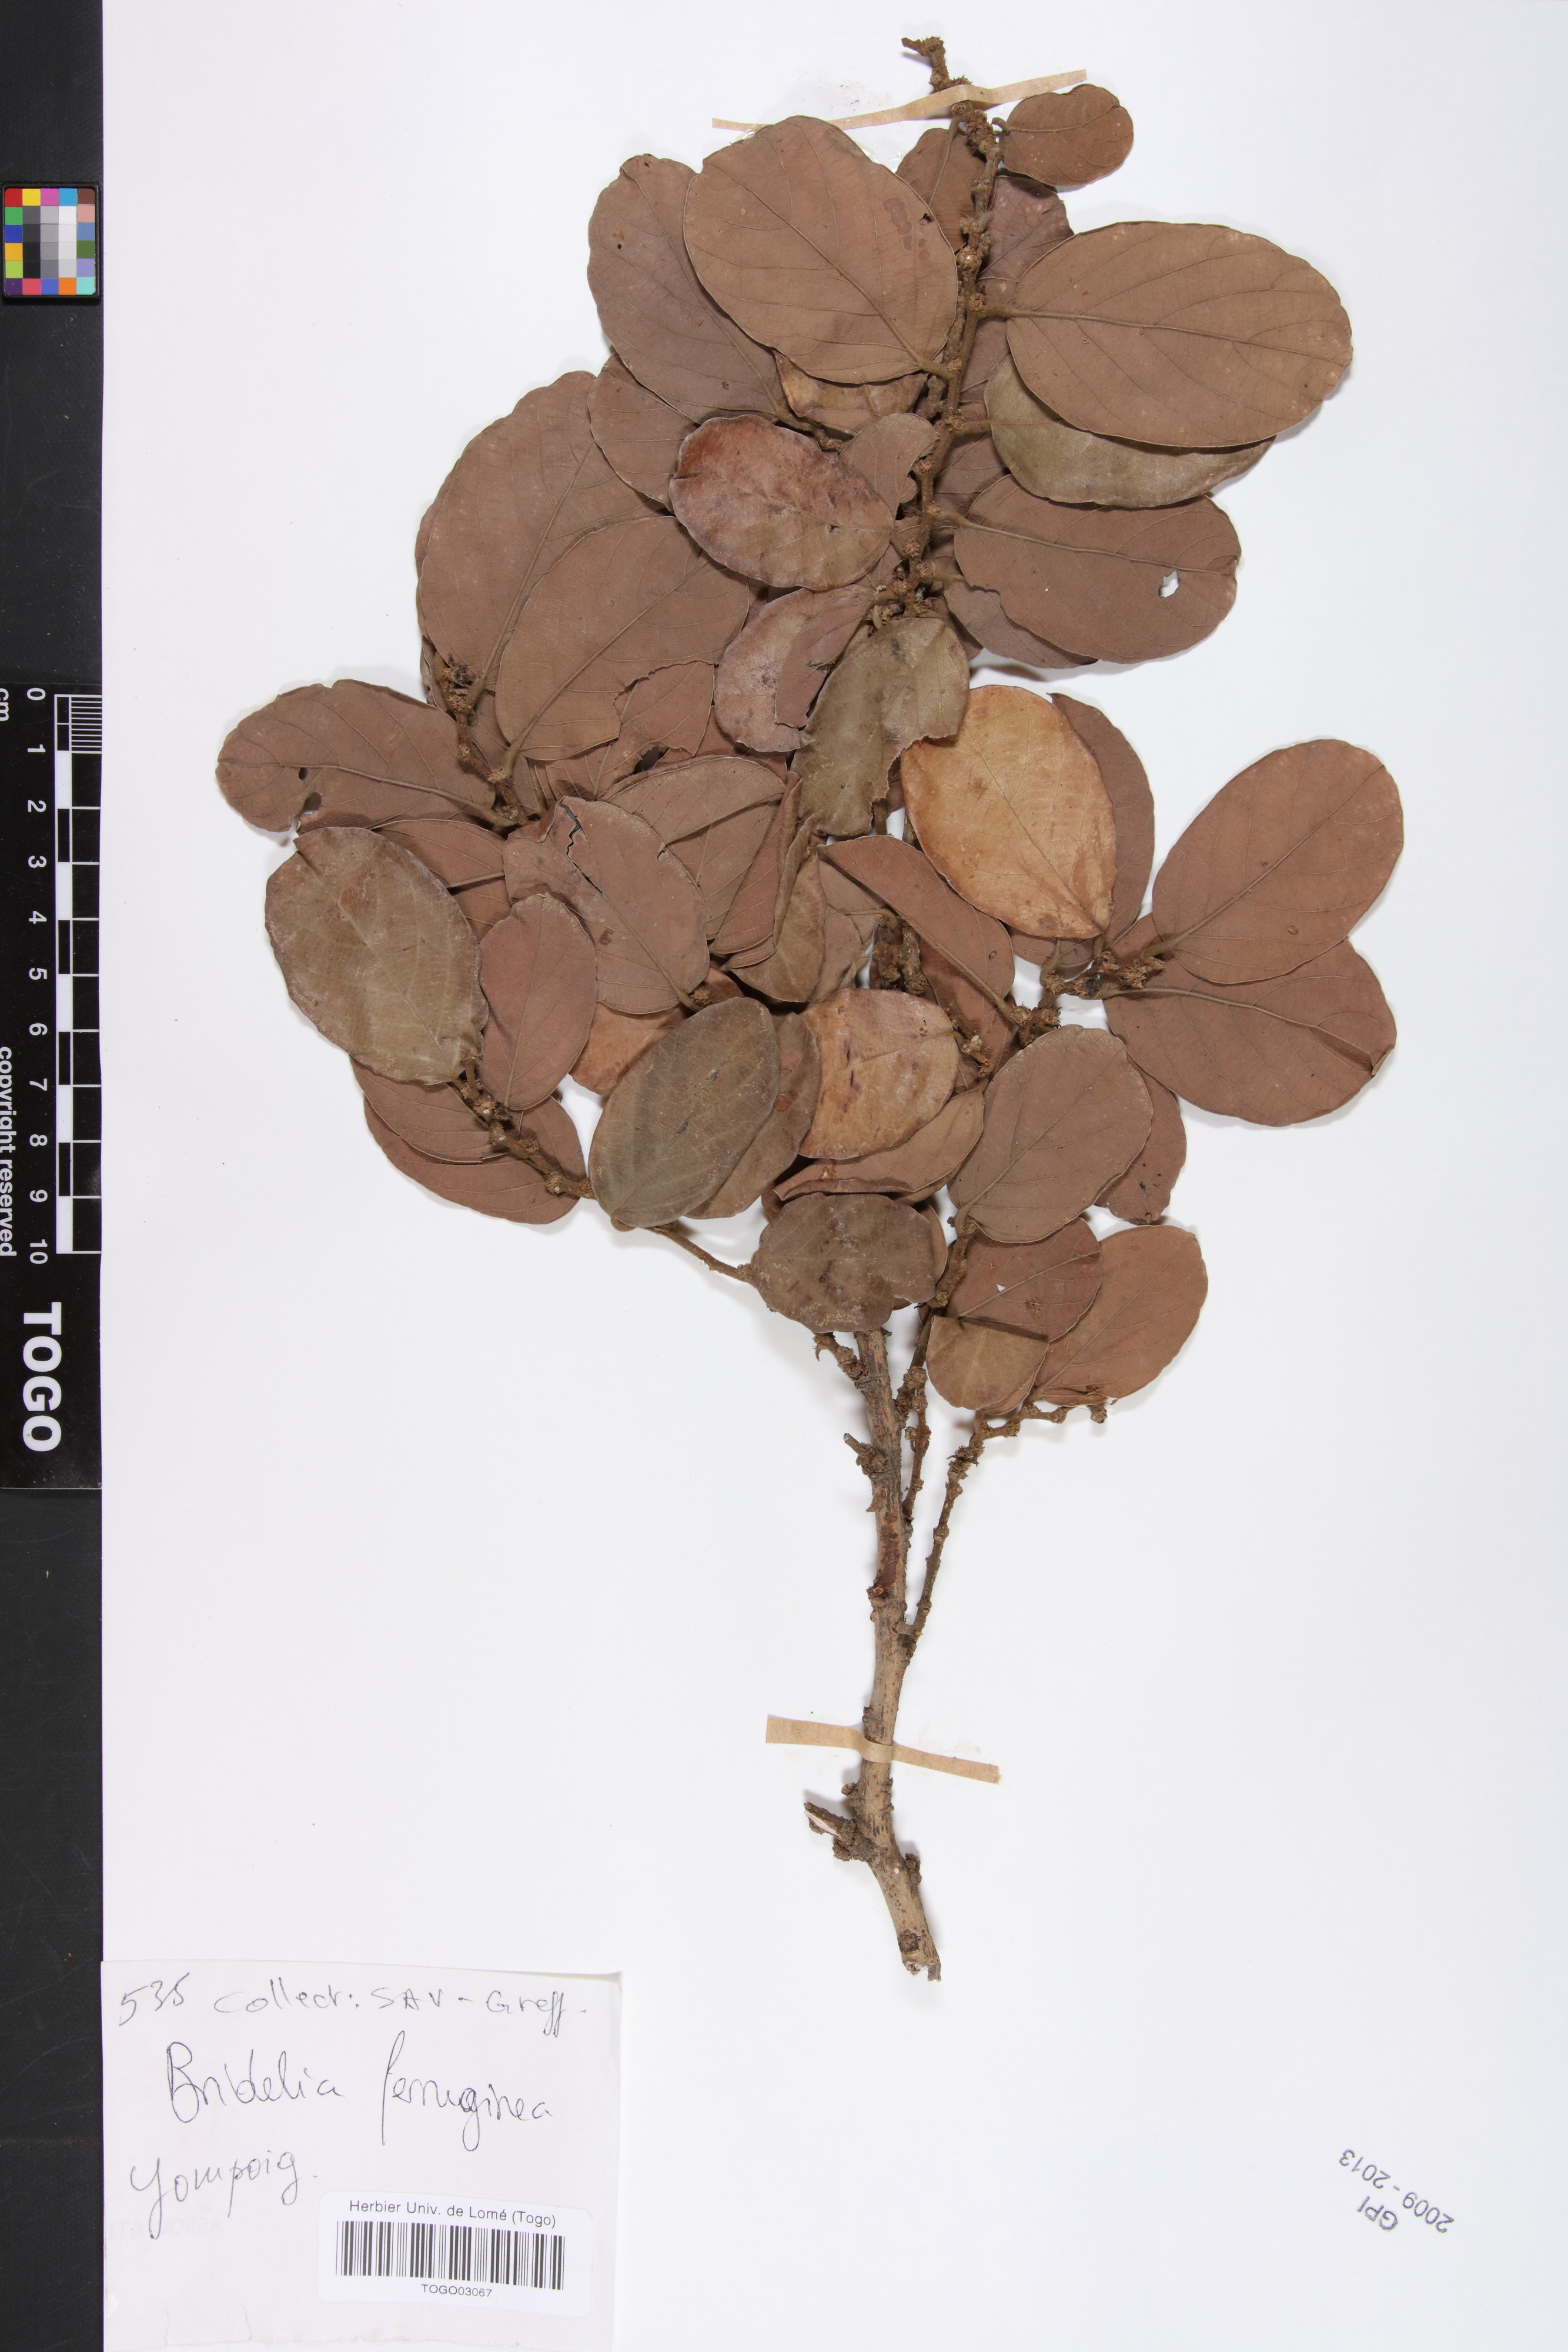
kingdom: Plantae
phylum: Tracheophyta
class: Magnoliopsida
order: Malpighiales
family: Phyllanthaceae
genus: Bridelia
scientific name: Bridelia ferruginea
